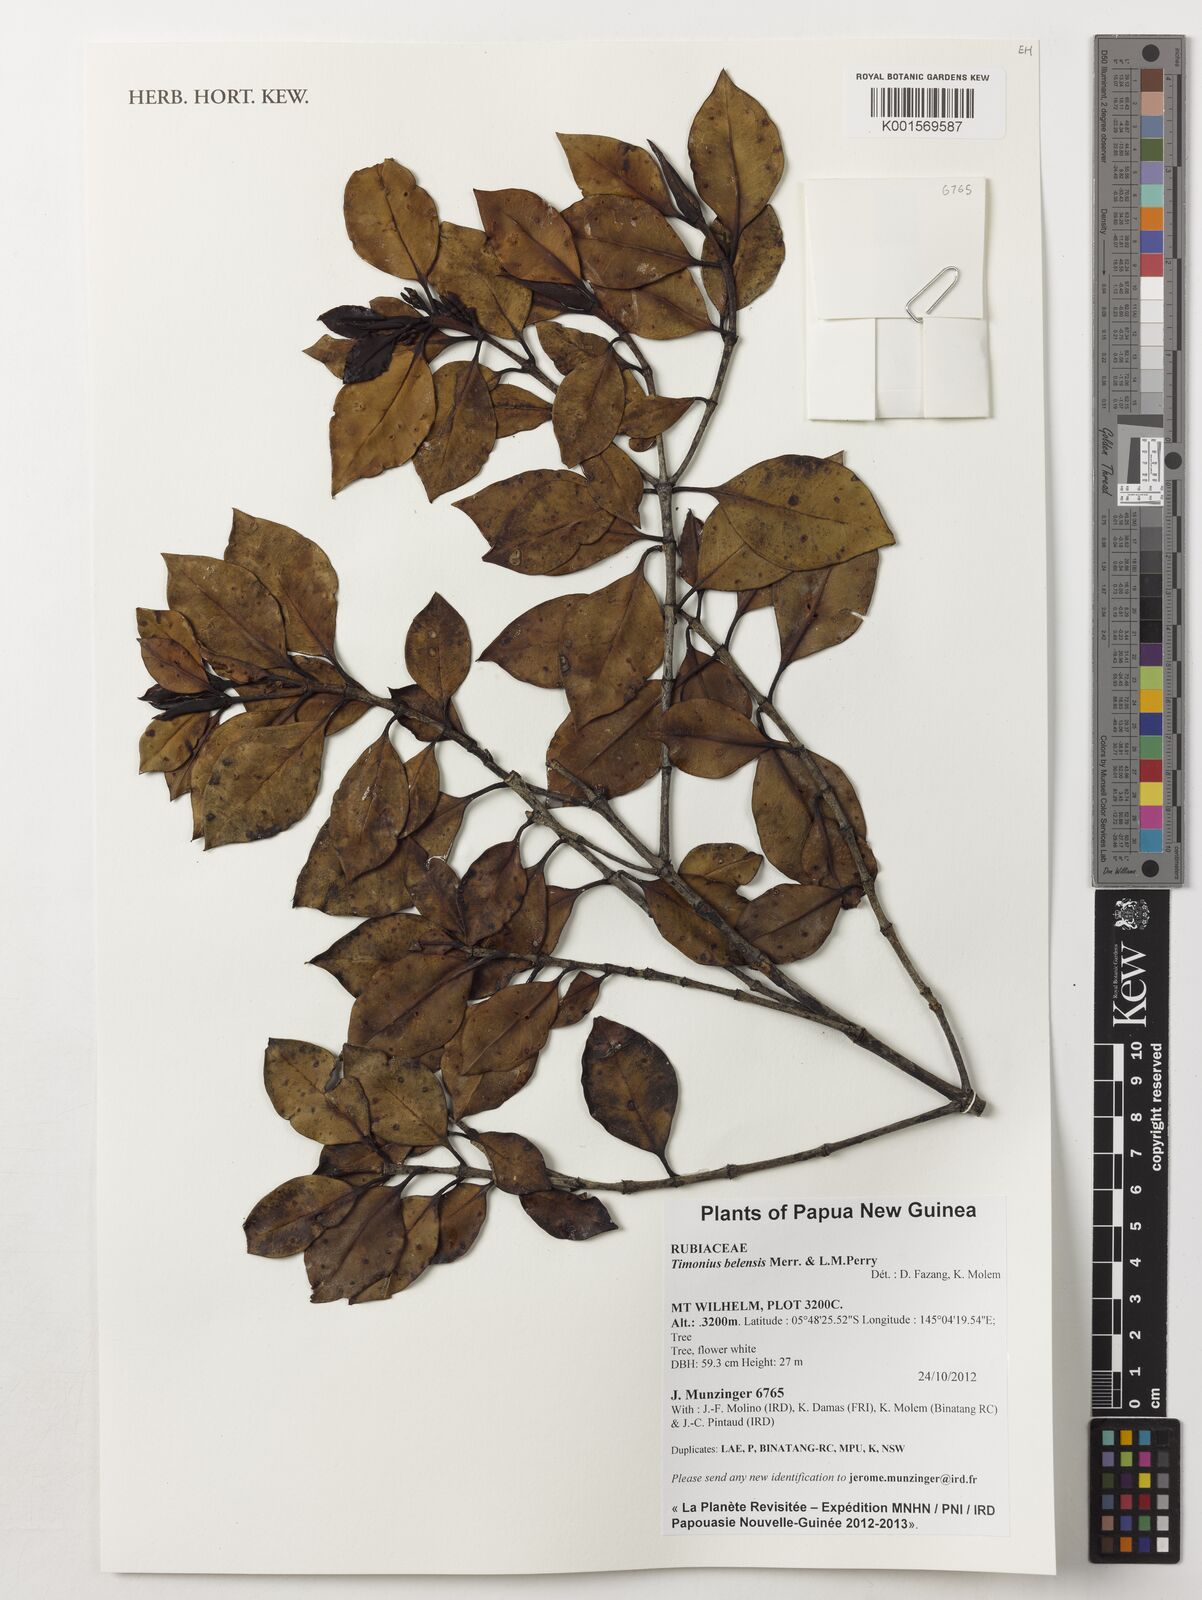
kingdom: Plantae
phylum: Tracheophyta
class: Magnoliopsida
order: Gentianales
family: Rubiaceae
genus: Timonius
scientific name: Timonius belensis
